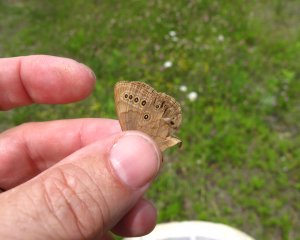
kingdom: Animalia
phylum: Arthropoda
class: Insecta
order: Lepidoptera
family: Nymphalidae
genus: Lethe
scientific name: Lethe eurydice
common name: Eyed Brown
